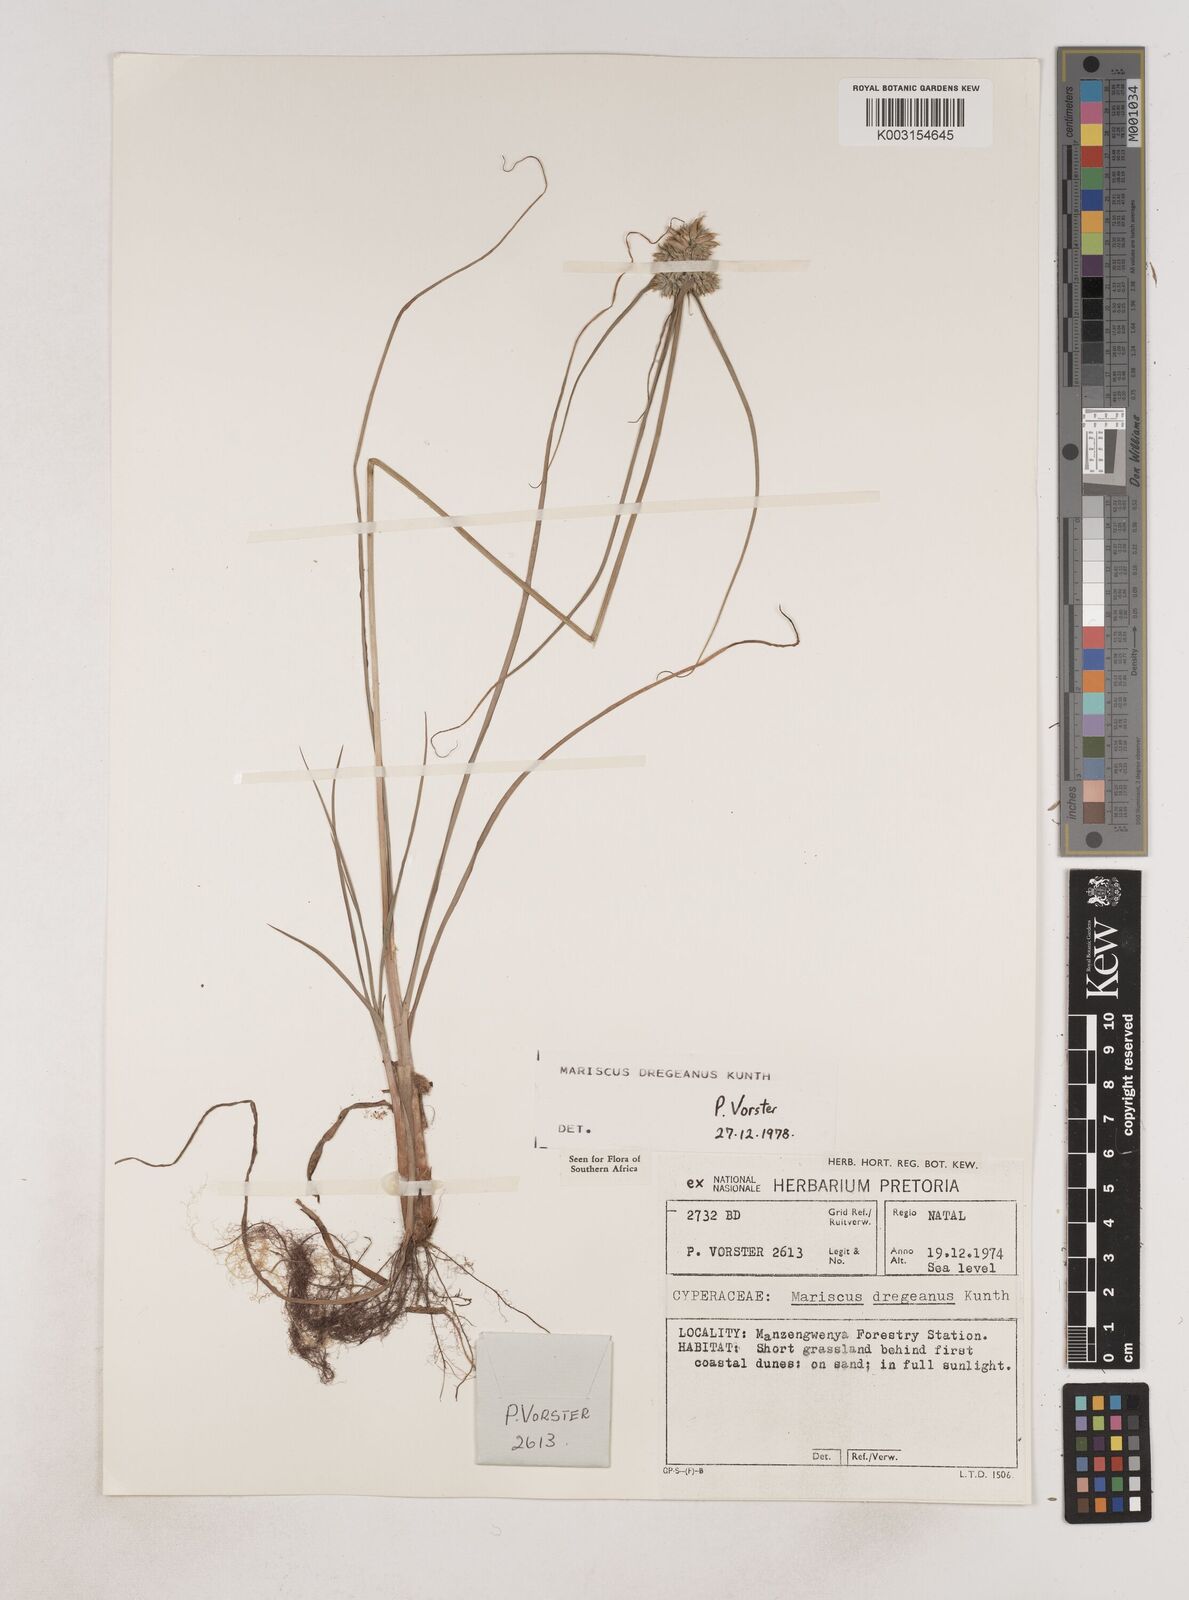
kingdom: Plantae
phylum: Tracheophyta
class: Liliopsida
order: Poales
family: Cyperaceae
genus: Cyperus
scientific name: Cyperus dubius
